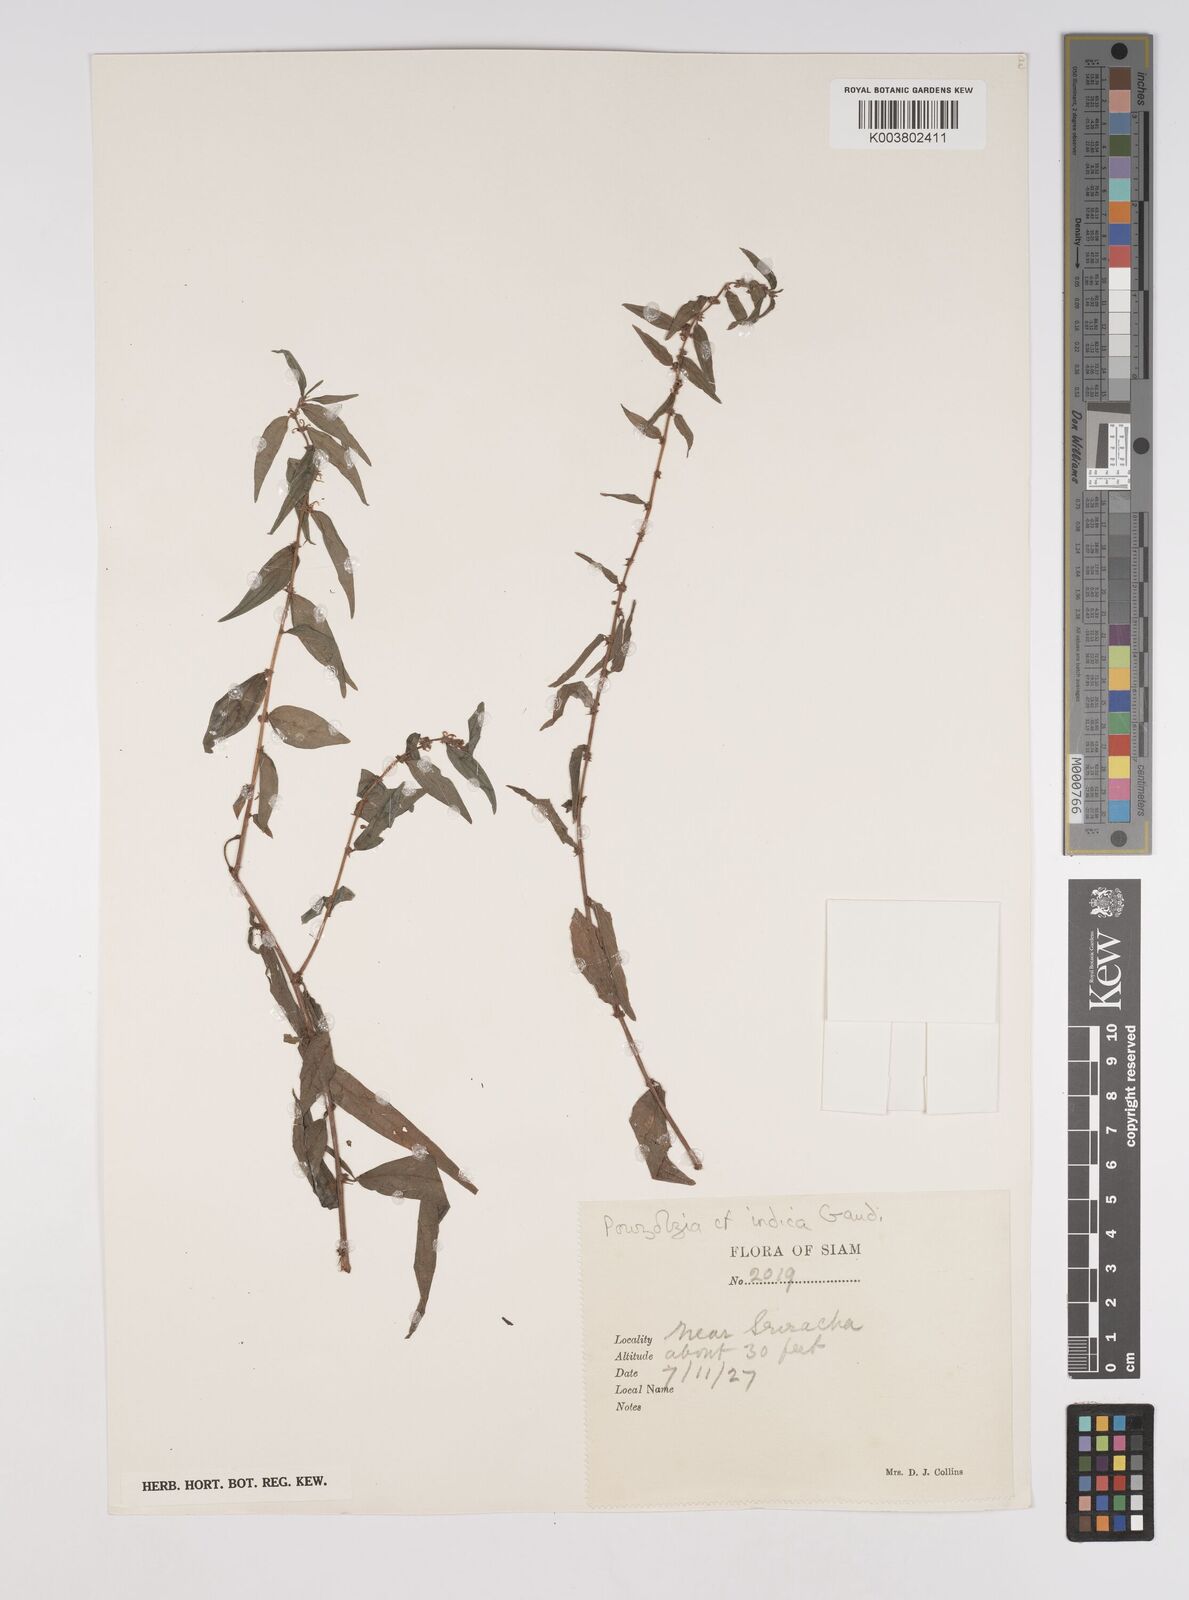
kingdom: Plantae
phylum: Tracheophyta
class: Magnoliopsida
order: Rosales
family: Urticaceae
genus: Pouzolzia
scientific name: Pouzolzia zeylanica
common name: Graceful pouzolzsbush
